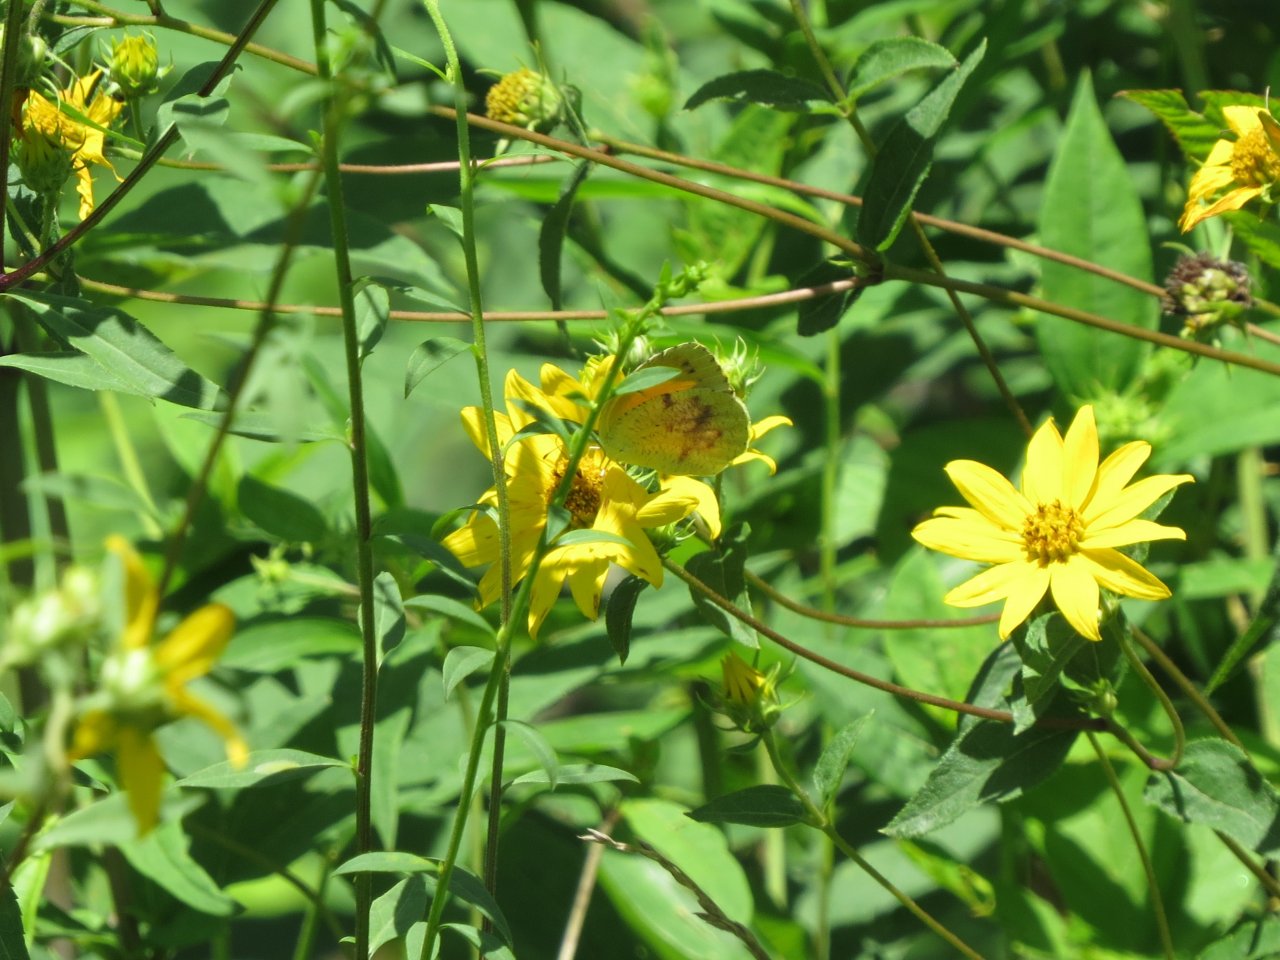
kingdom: Animalia
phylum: Arthropoda
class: Insecta
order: Lepidoptera
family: Pieridae
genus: Abaeis
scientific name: Abaeis nicippe
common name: Sleepy Orange
